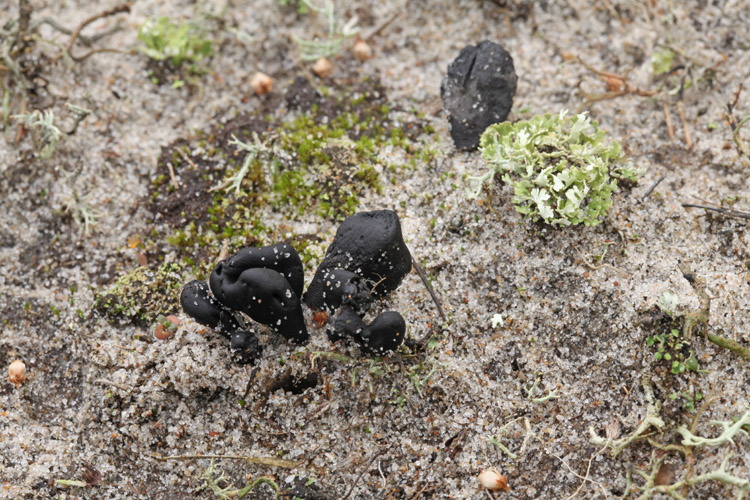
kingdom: Fungi
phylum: Ascomycota
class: Geoglossomycetes
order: Geoglossales
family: Geoglossaceae
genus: Sabuloglossum
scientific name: Sabuloglossum arenarium
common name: klit-jordtunge
